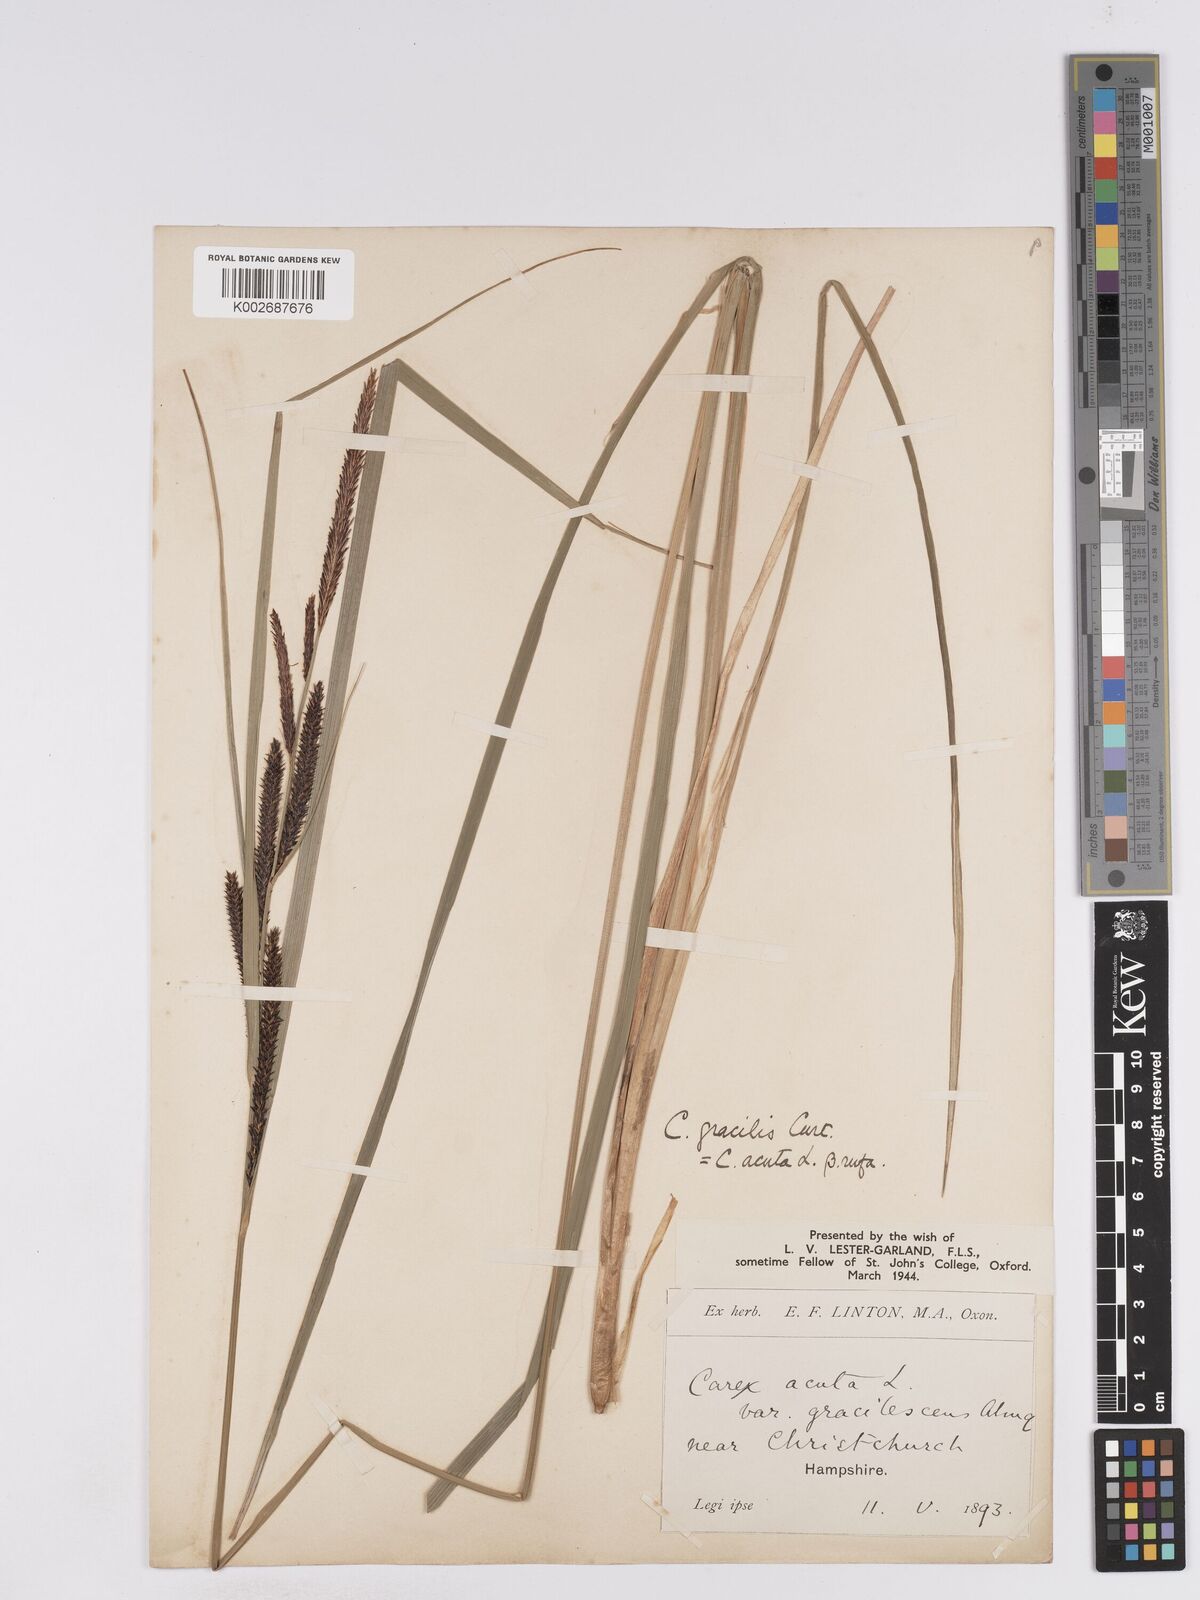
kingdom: Plantae
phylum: Tracheophyta
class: Liliopsida
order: Poales
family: Cyperaceae
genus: Carex
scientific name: Carex acuta
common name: Slender tufted-sedge
